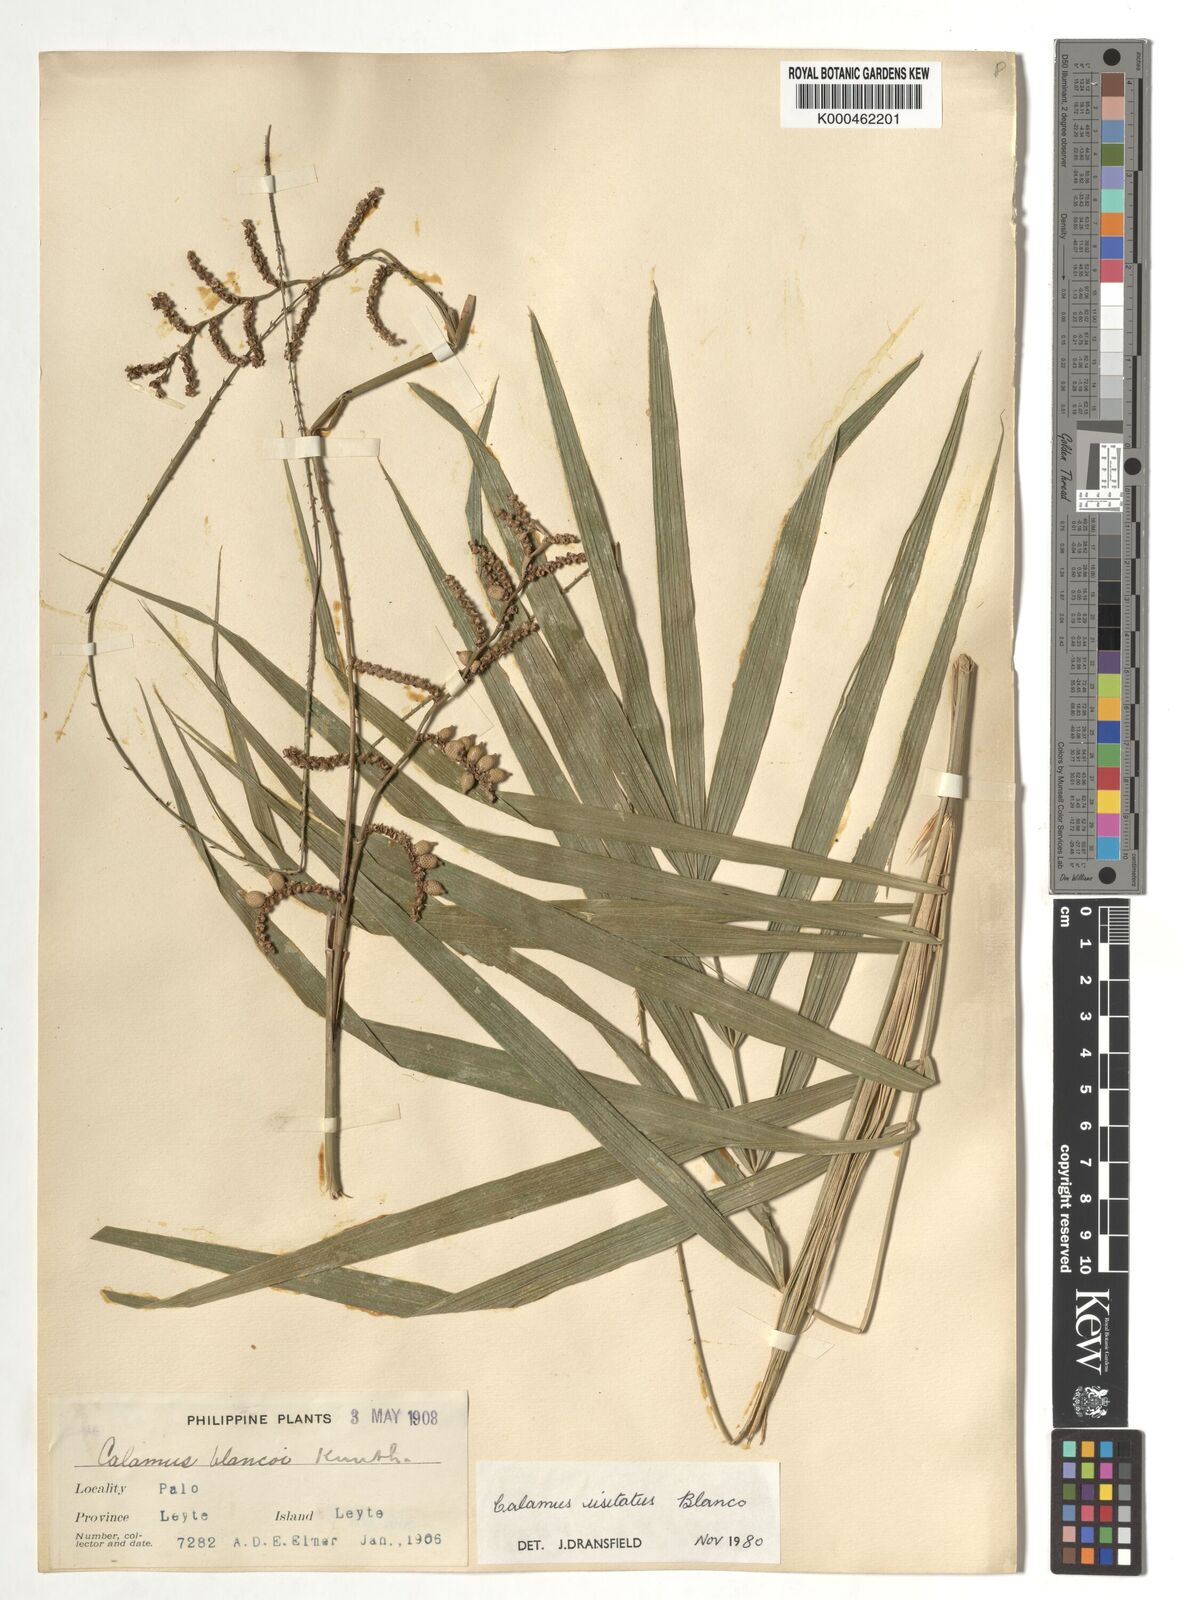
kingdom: Plantae
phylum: Tracheophyta
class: Liliopsida
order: Arecales
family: Arecaceae
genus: Calamus
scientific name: Calamus usitatus
